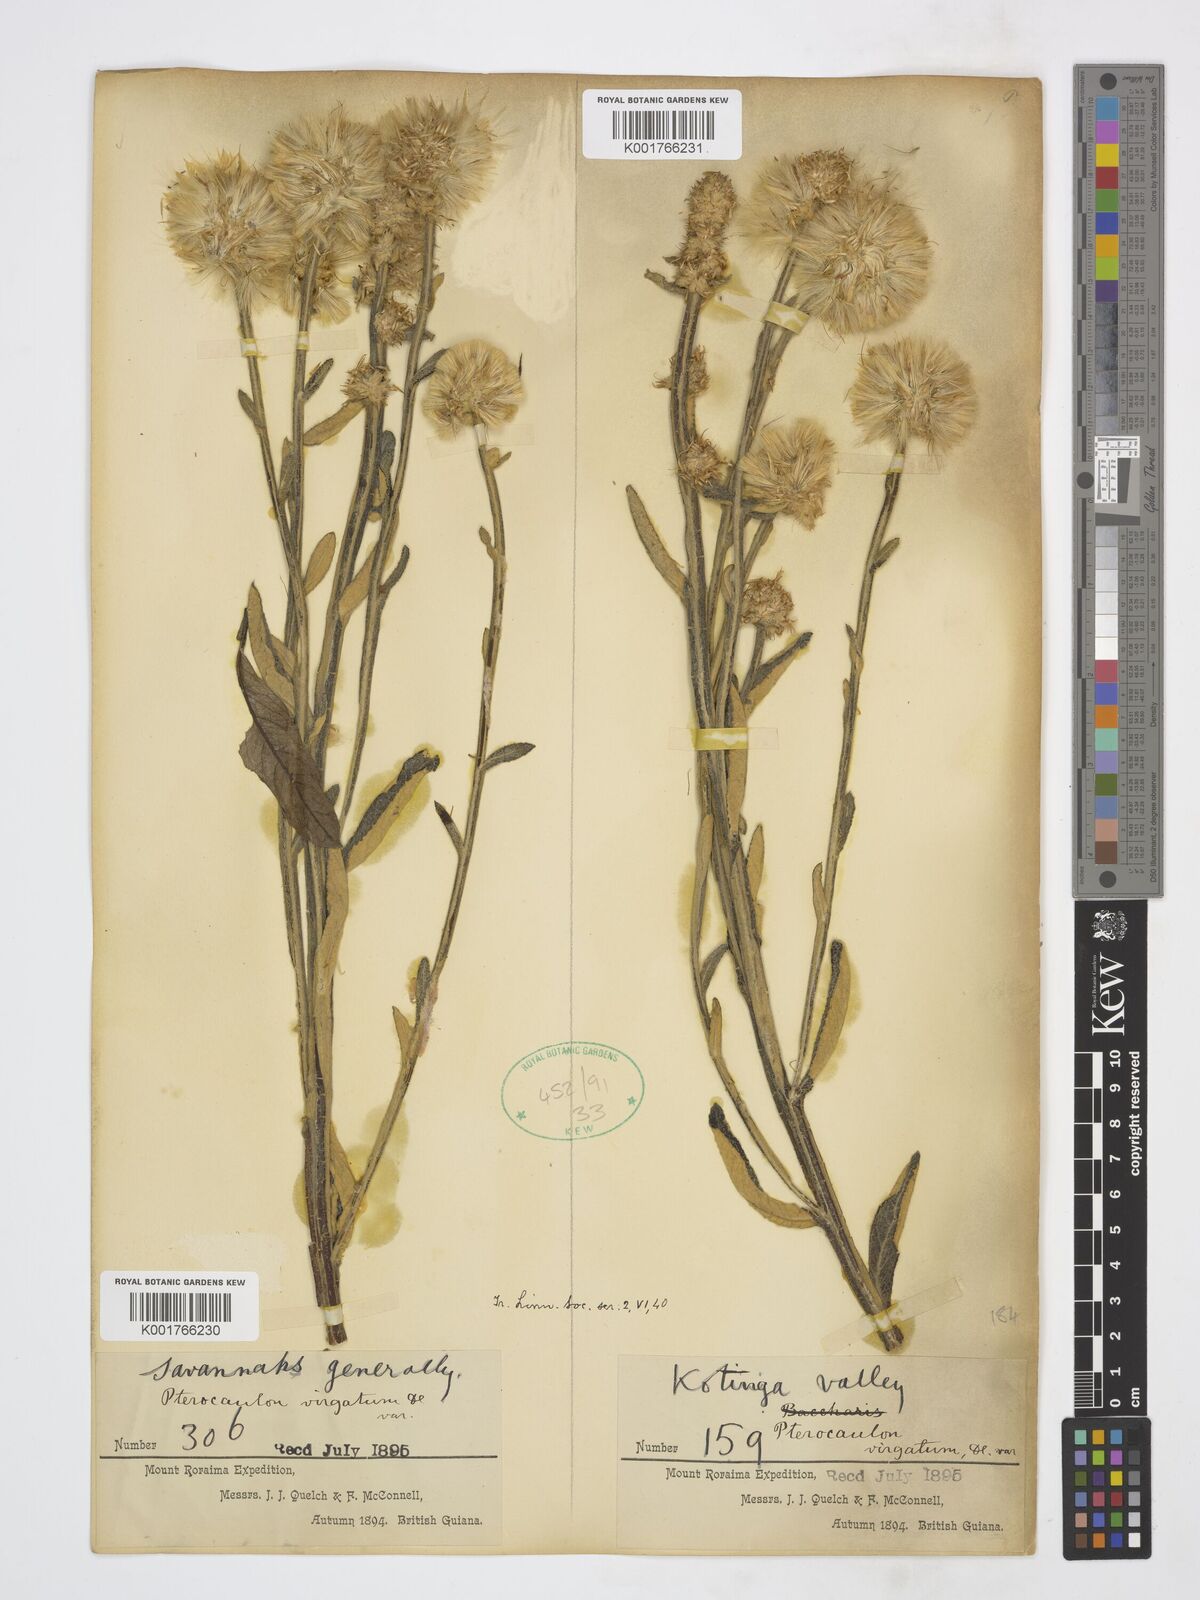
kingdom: Plantae
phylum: Tracheophyta
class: Magnoliopsida
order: Asterales
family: Asteraceae
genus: Pterocaulon
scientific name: Pterocaulon alopecuroides
